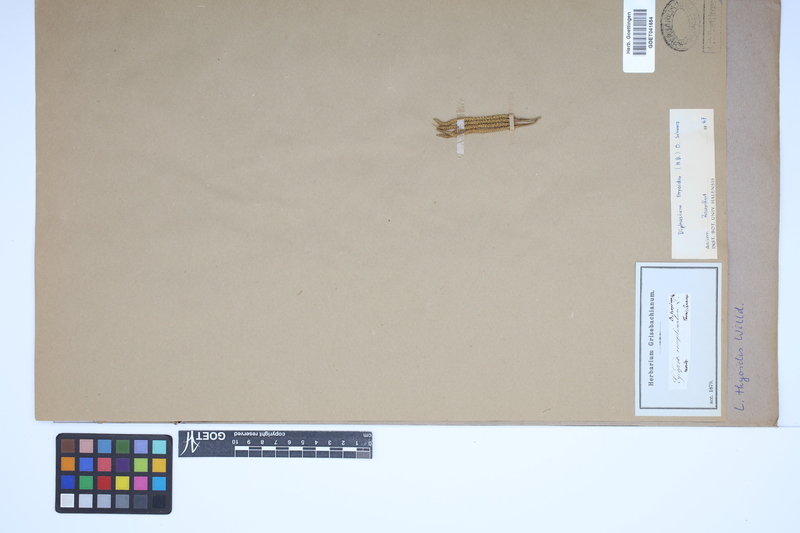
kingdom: Plantae
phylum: Tracheophyta
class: Lycopodiopsida
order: Lycopodiales
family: Lycopodiaceae
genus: Diphasiastrum
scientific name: Diphasiastrum thyoides
